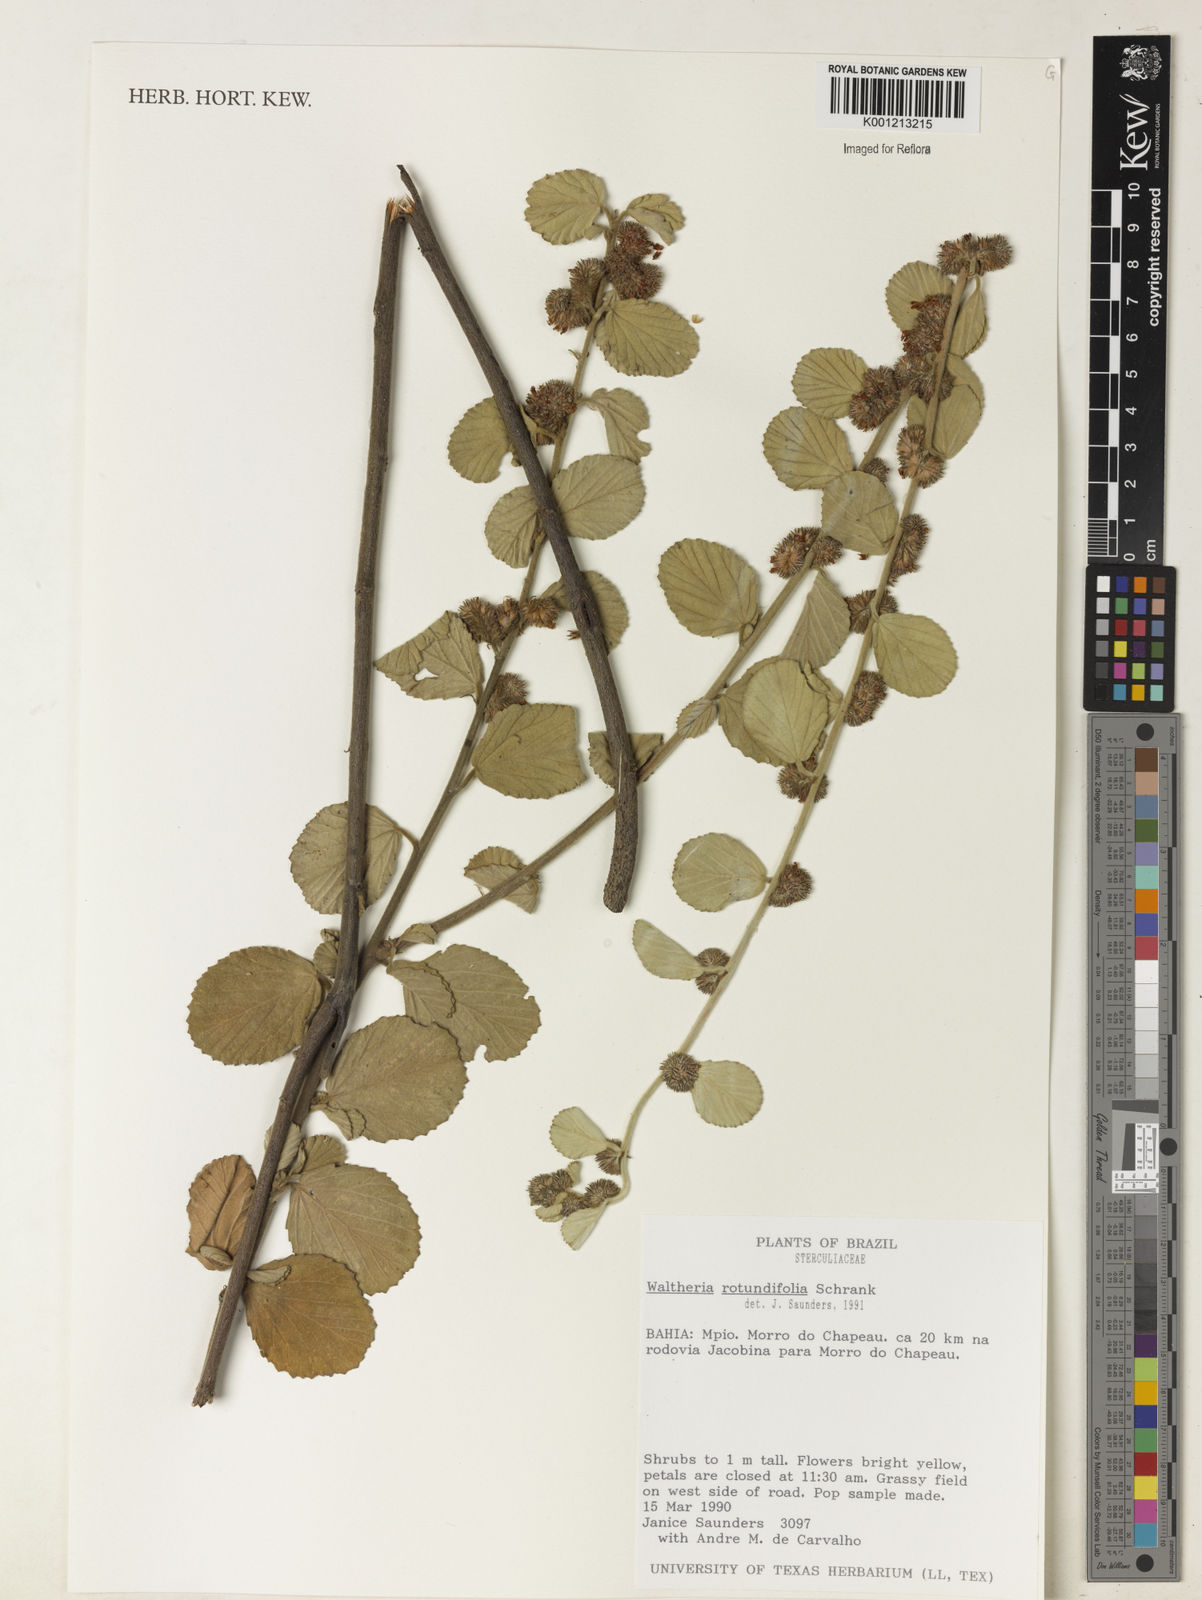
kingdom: Plantae
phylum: Tracheophyta
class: Magnoliopsida
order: Malvales
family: Malvaceae
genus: Waltheria
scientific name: Waltheria rotundifolia
